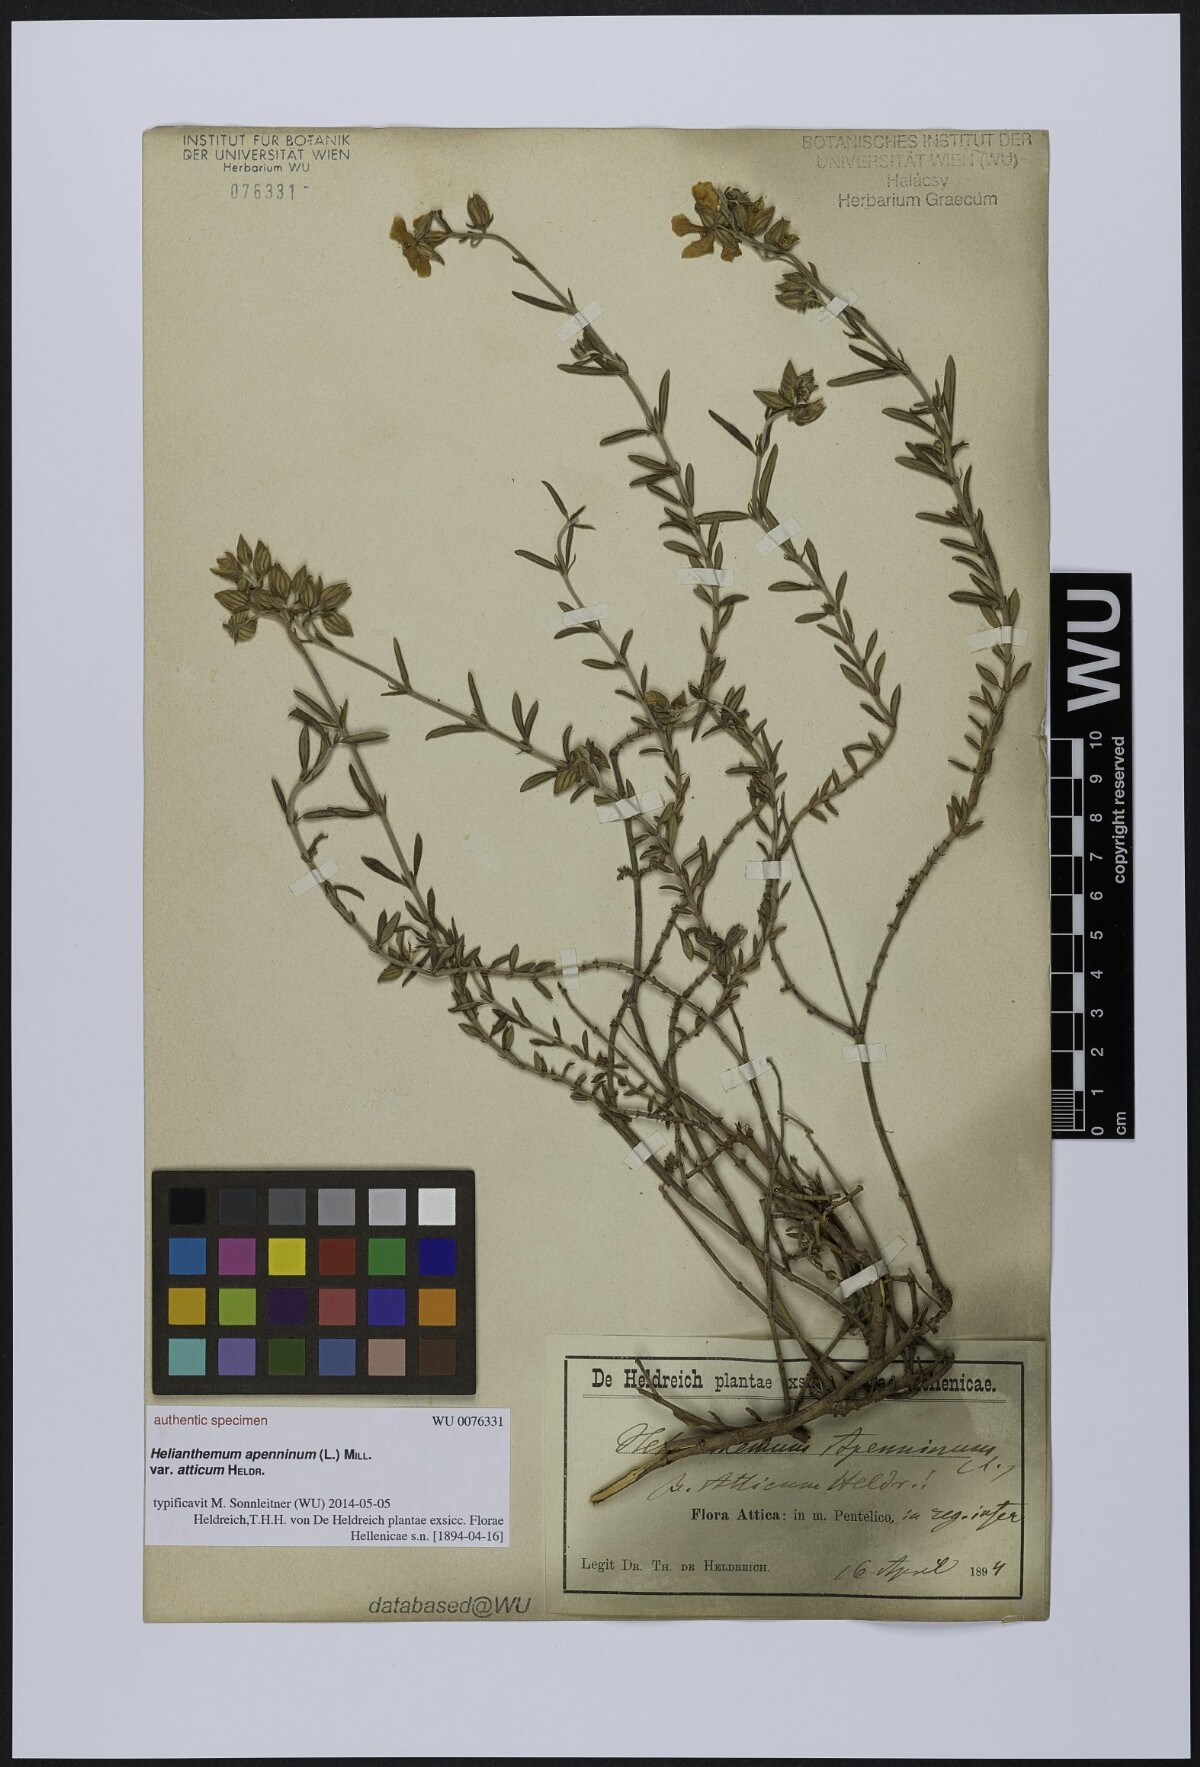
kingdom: Plantae
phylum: Tracheophyta
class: Magnoliopsida
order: Malvales
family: Cistaceae
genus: Helianthemum
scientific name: Helianthemum apenninum
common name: White rock-rose
